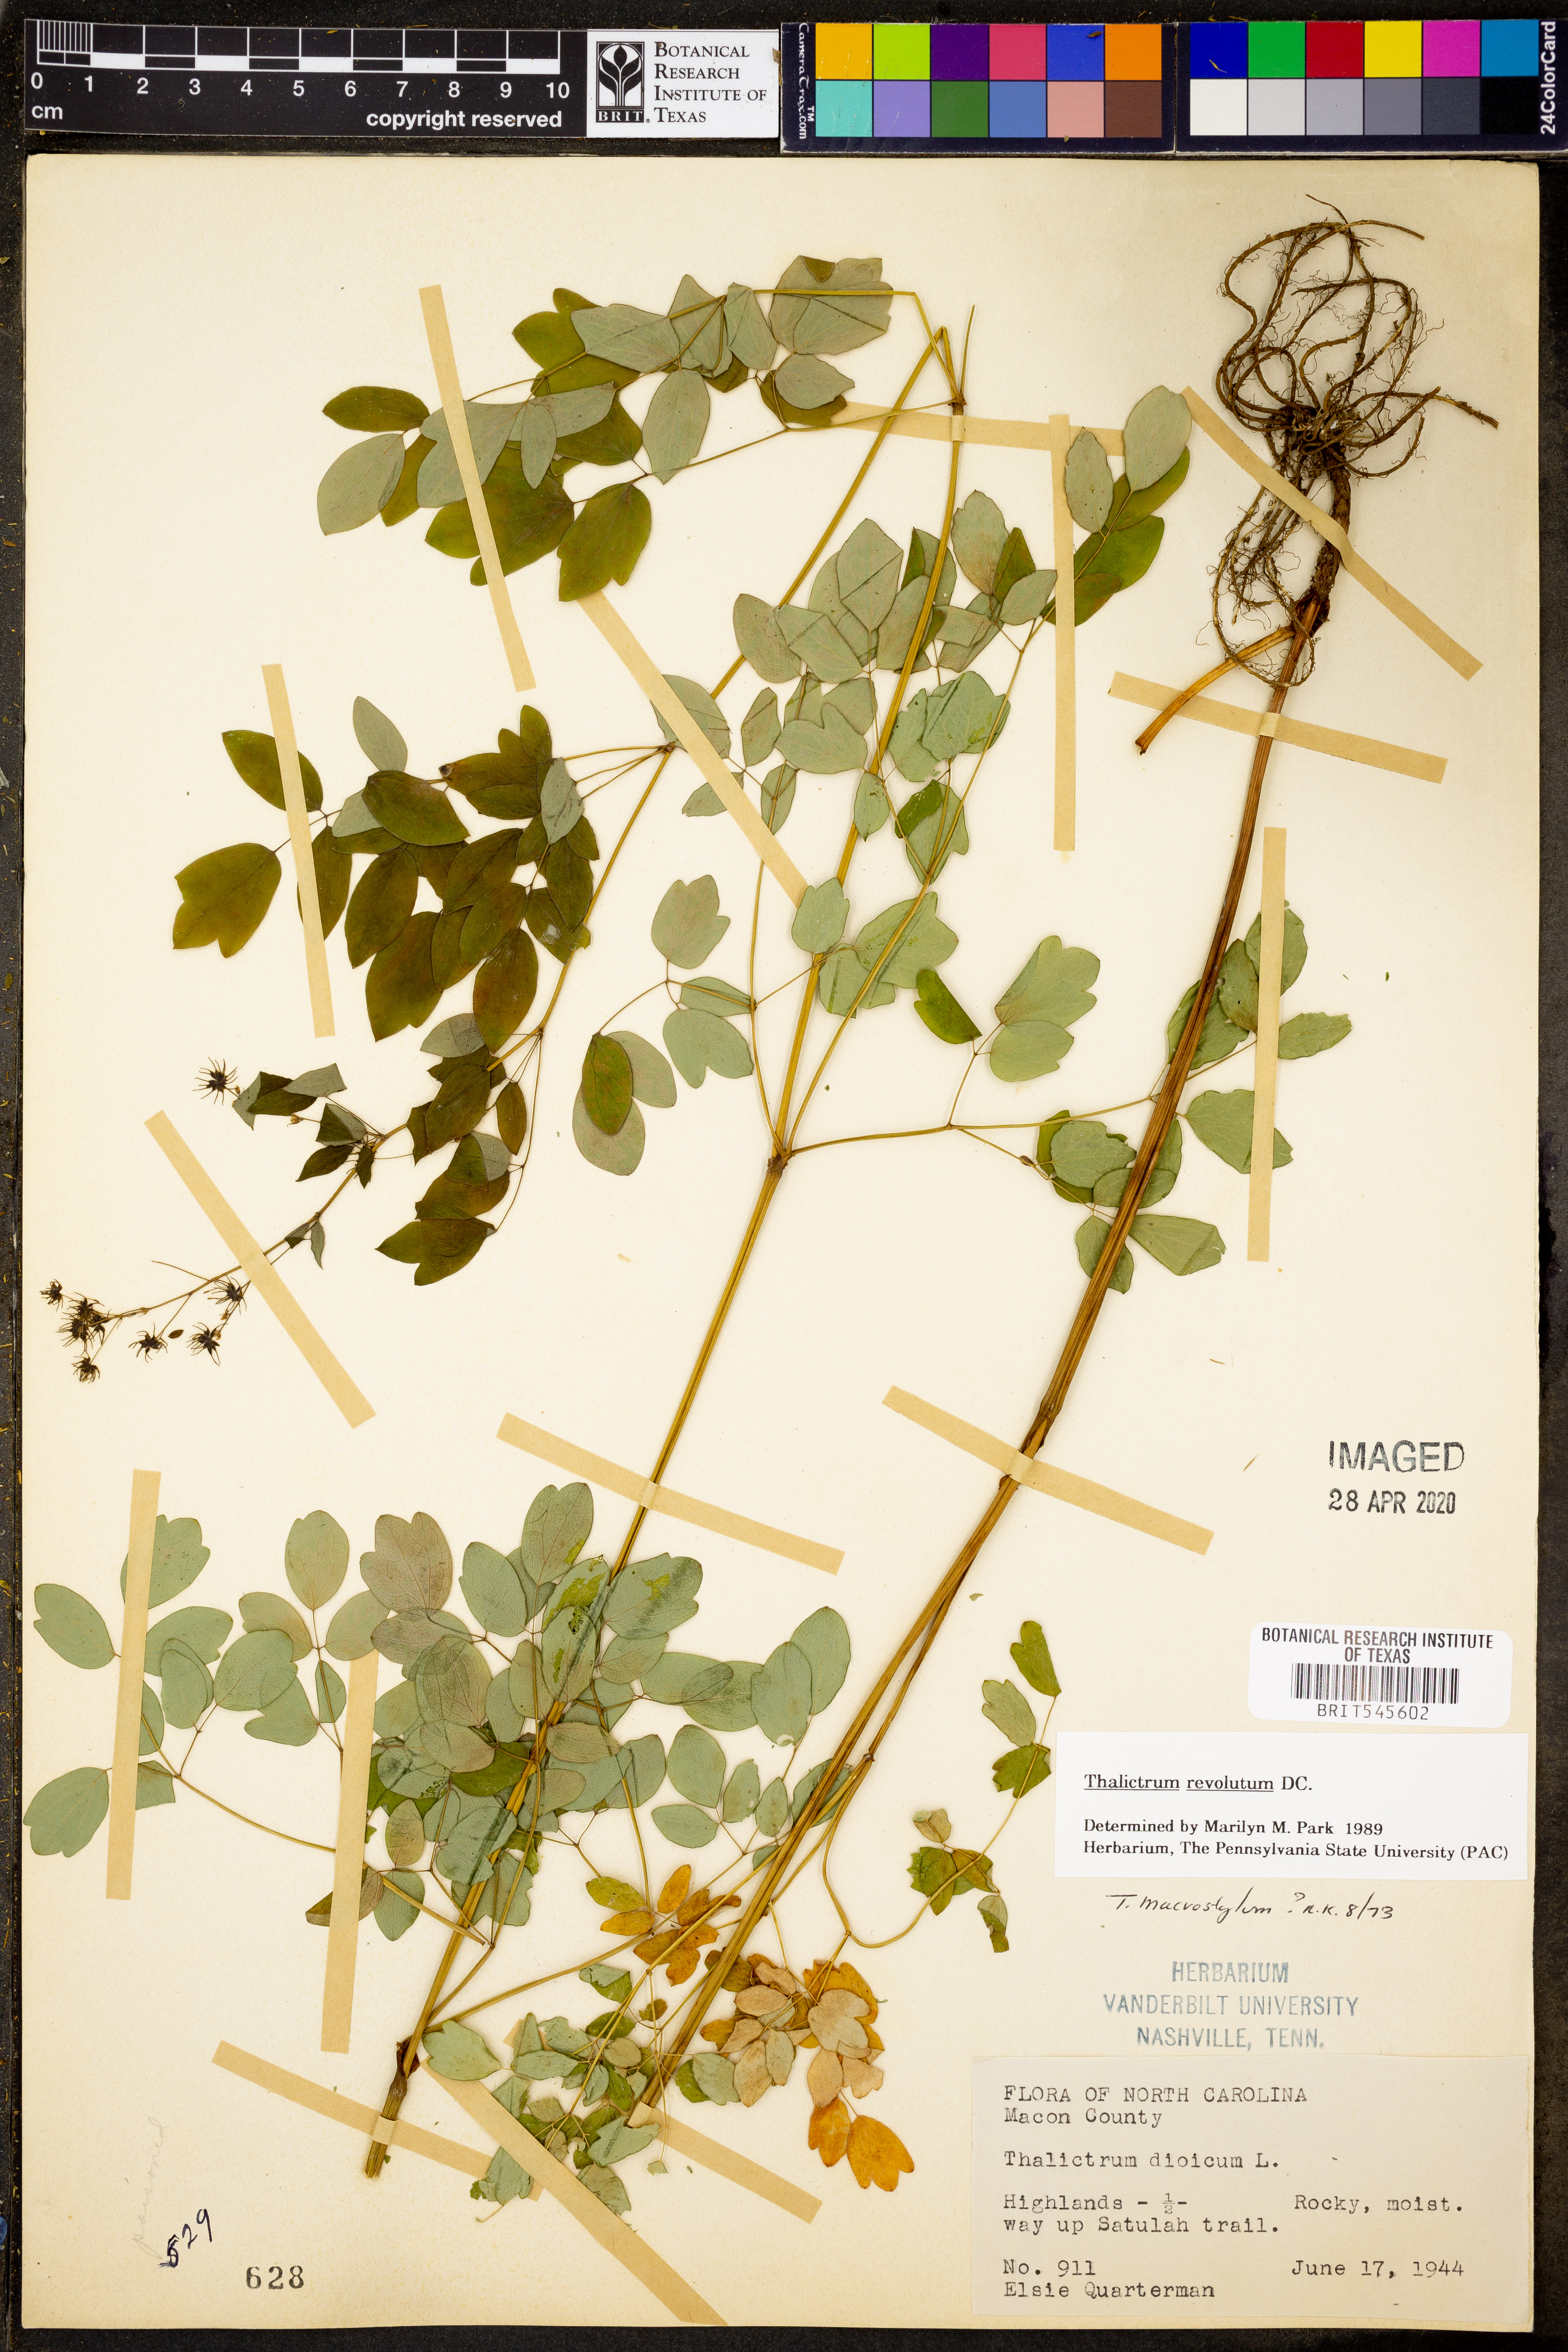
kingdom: Plantae
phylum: Tracheophyta
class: Magnoliopsida
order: Ranunculales
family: Ranunculaceae
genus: Thalictrum
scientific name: Thalictrum revolutum
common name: Waxy meadow-rue
